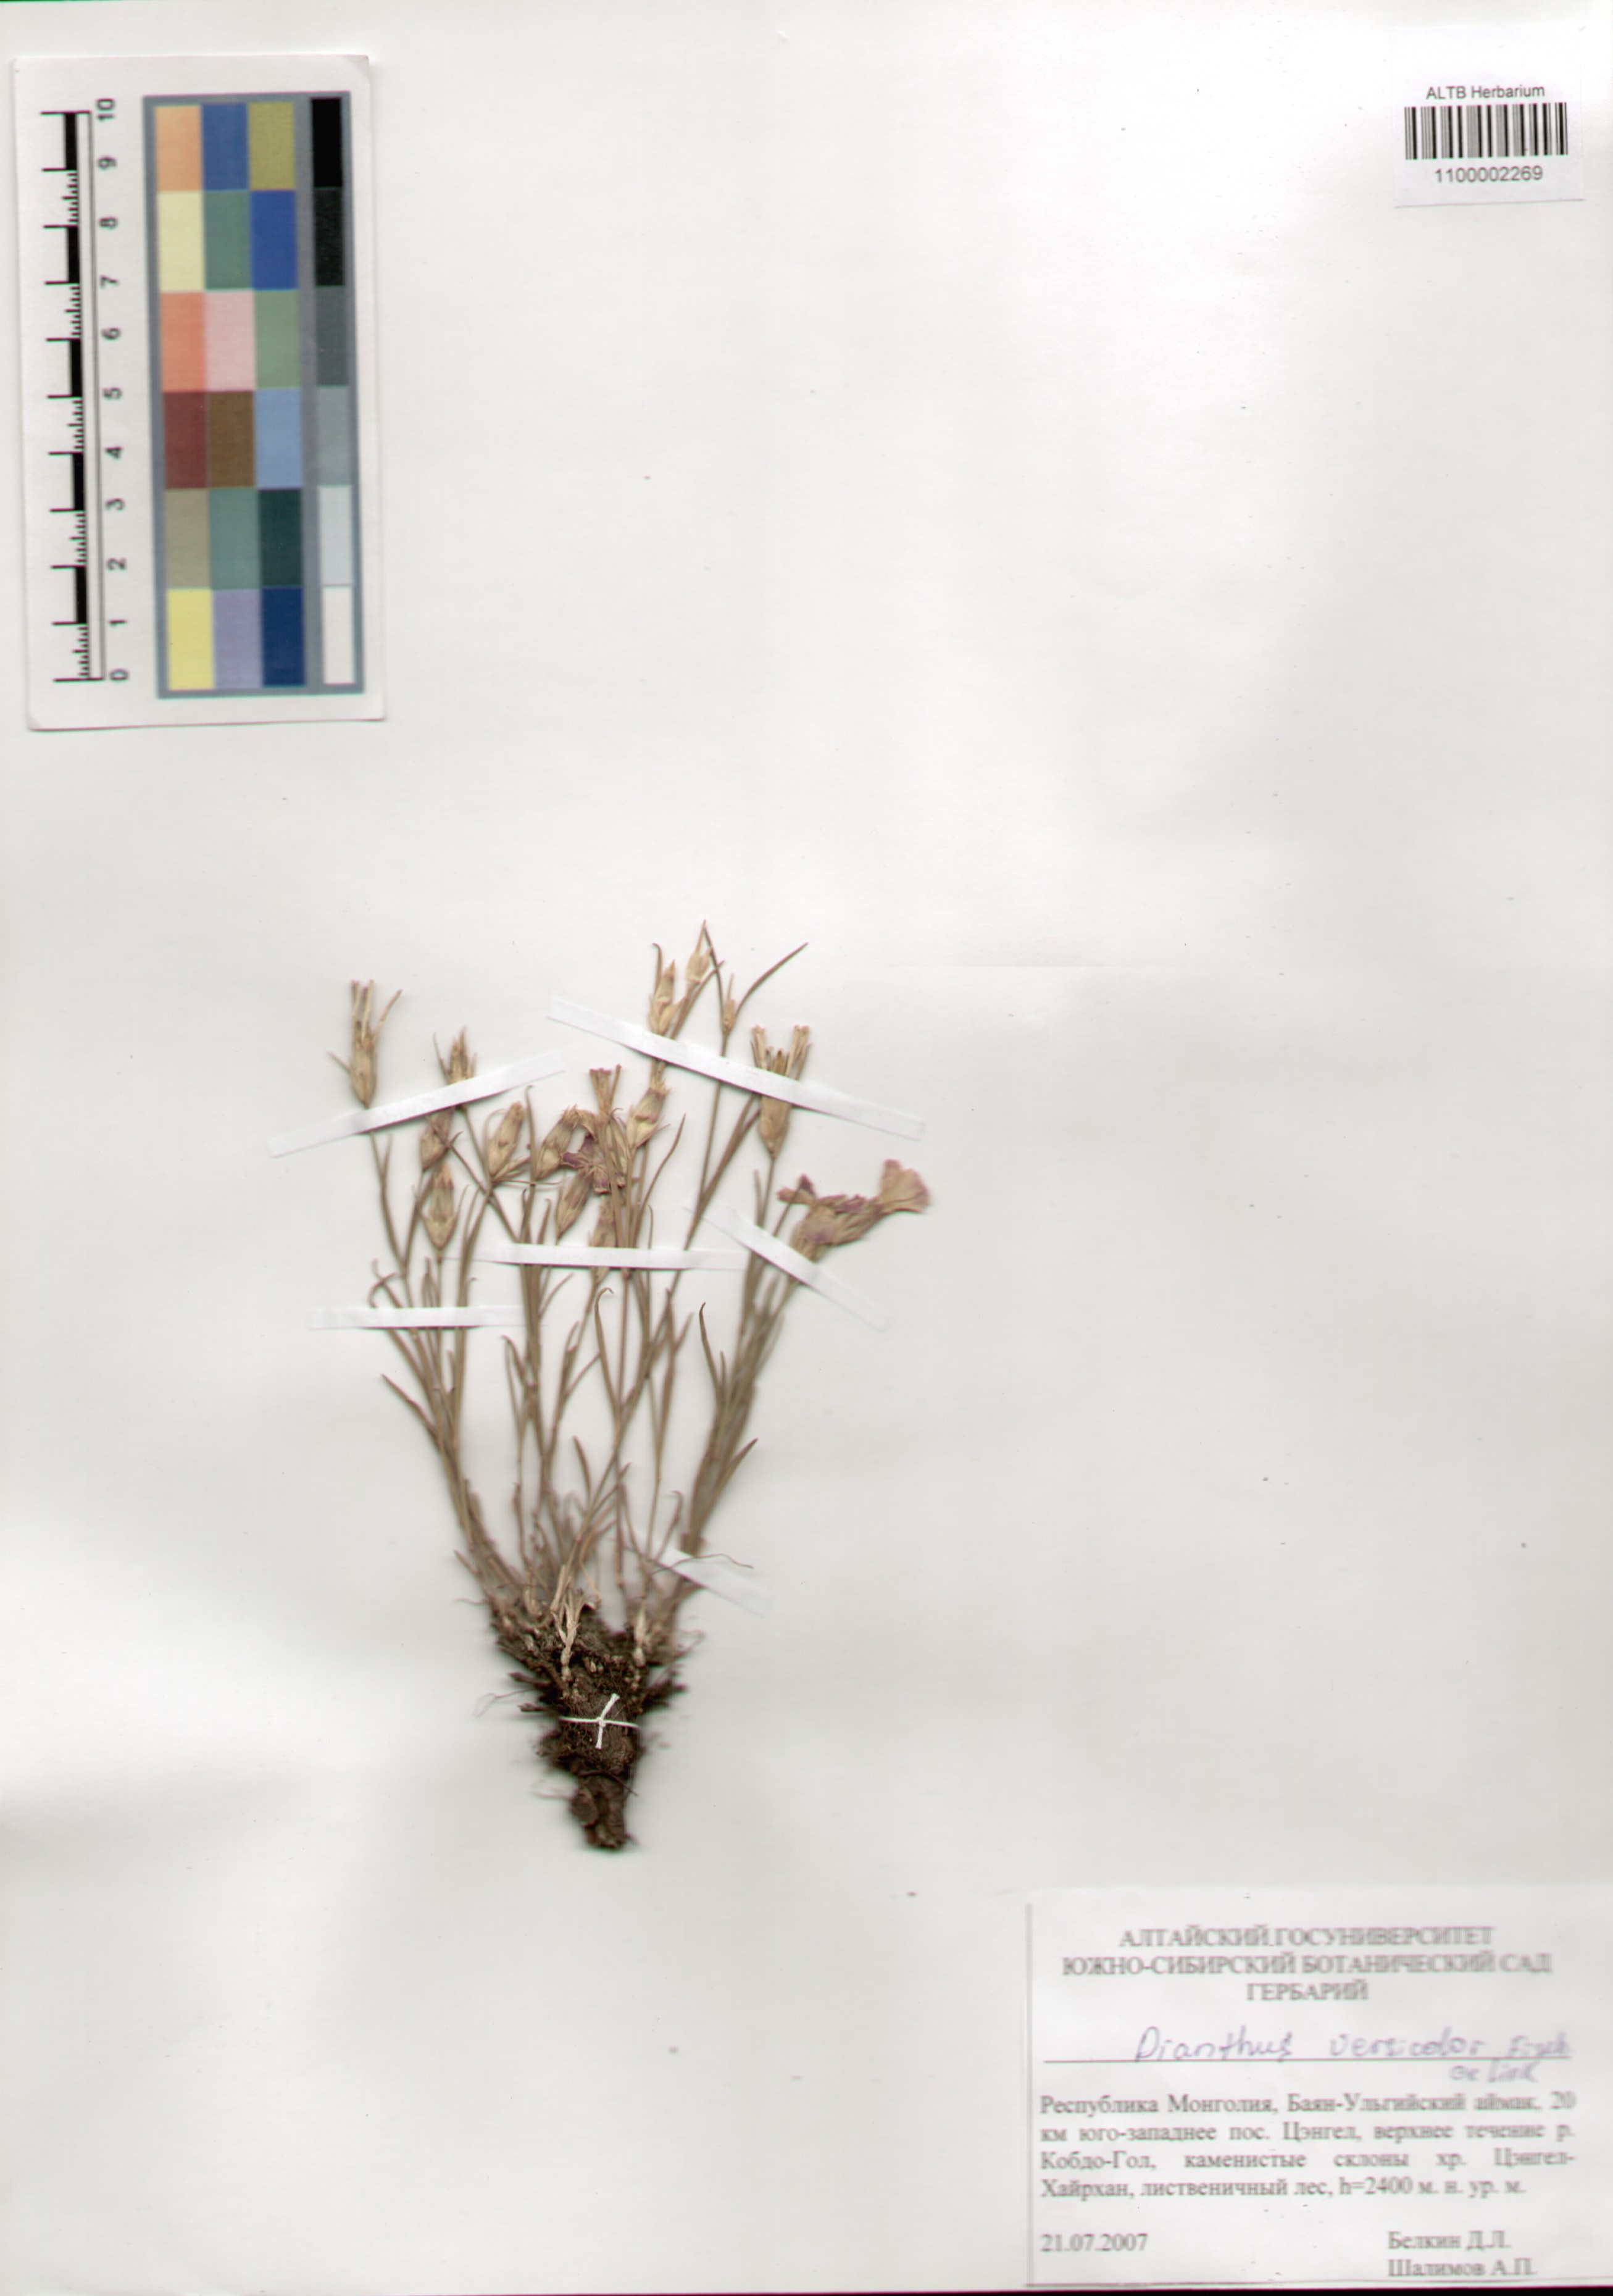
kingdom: Plantae
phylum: Tracheophyta
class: Magnoliopsida
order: Caryophyllales
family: Caryophyllaceae
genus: Dianthus
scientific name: Dianthus chinensis
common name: Rainbow pink
